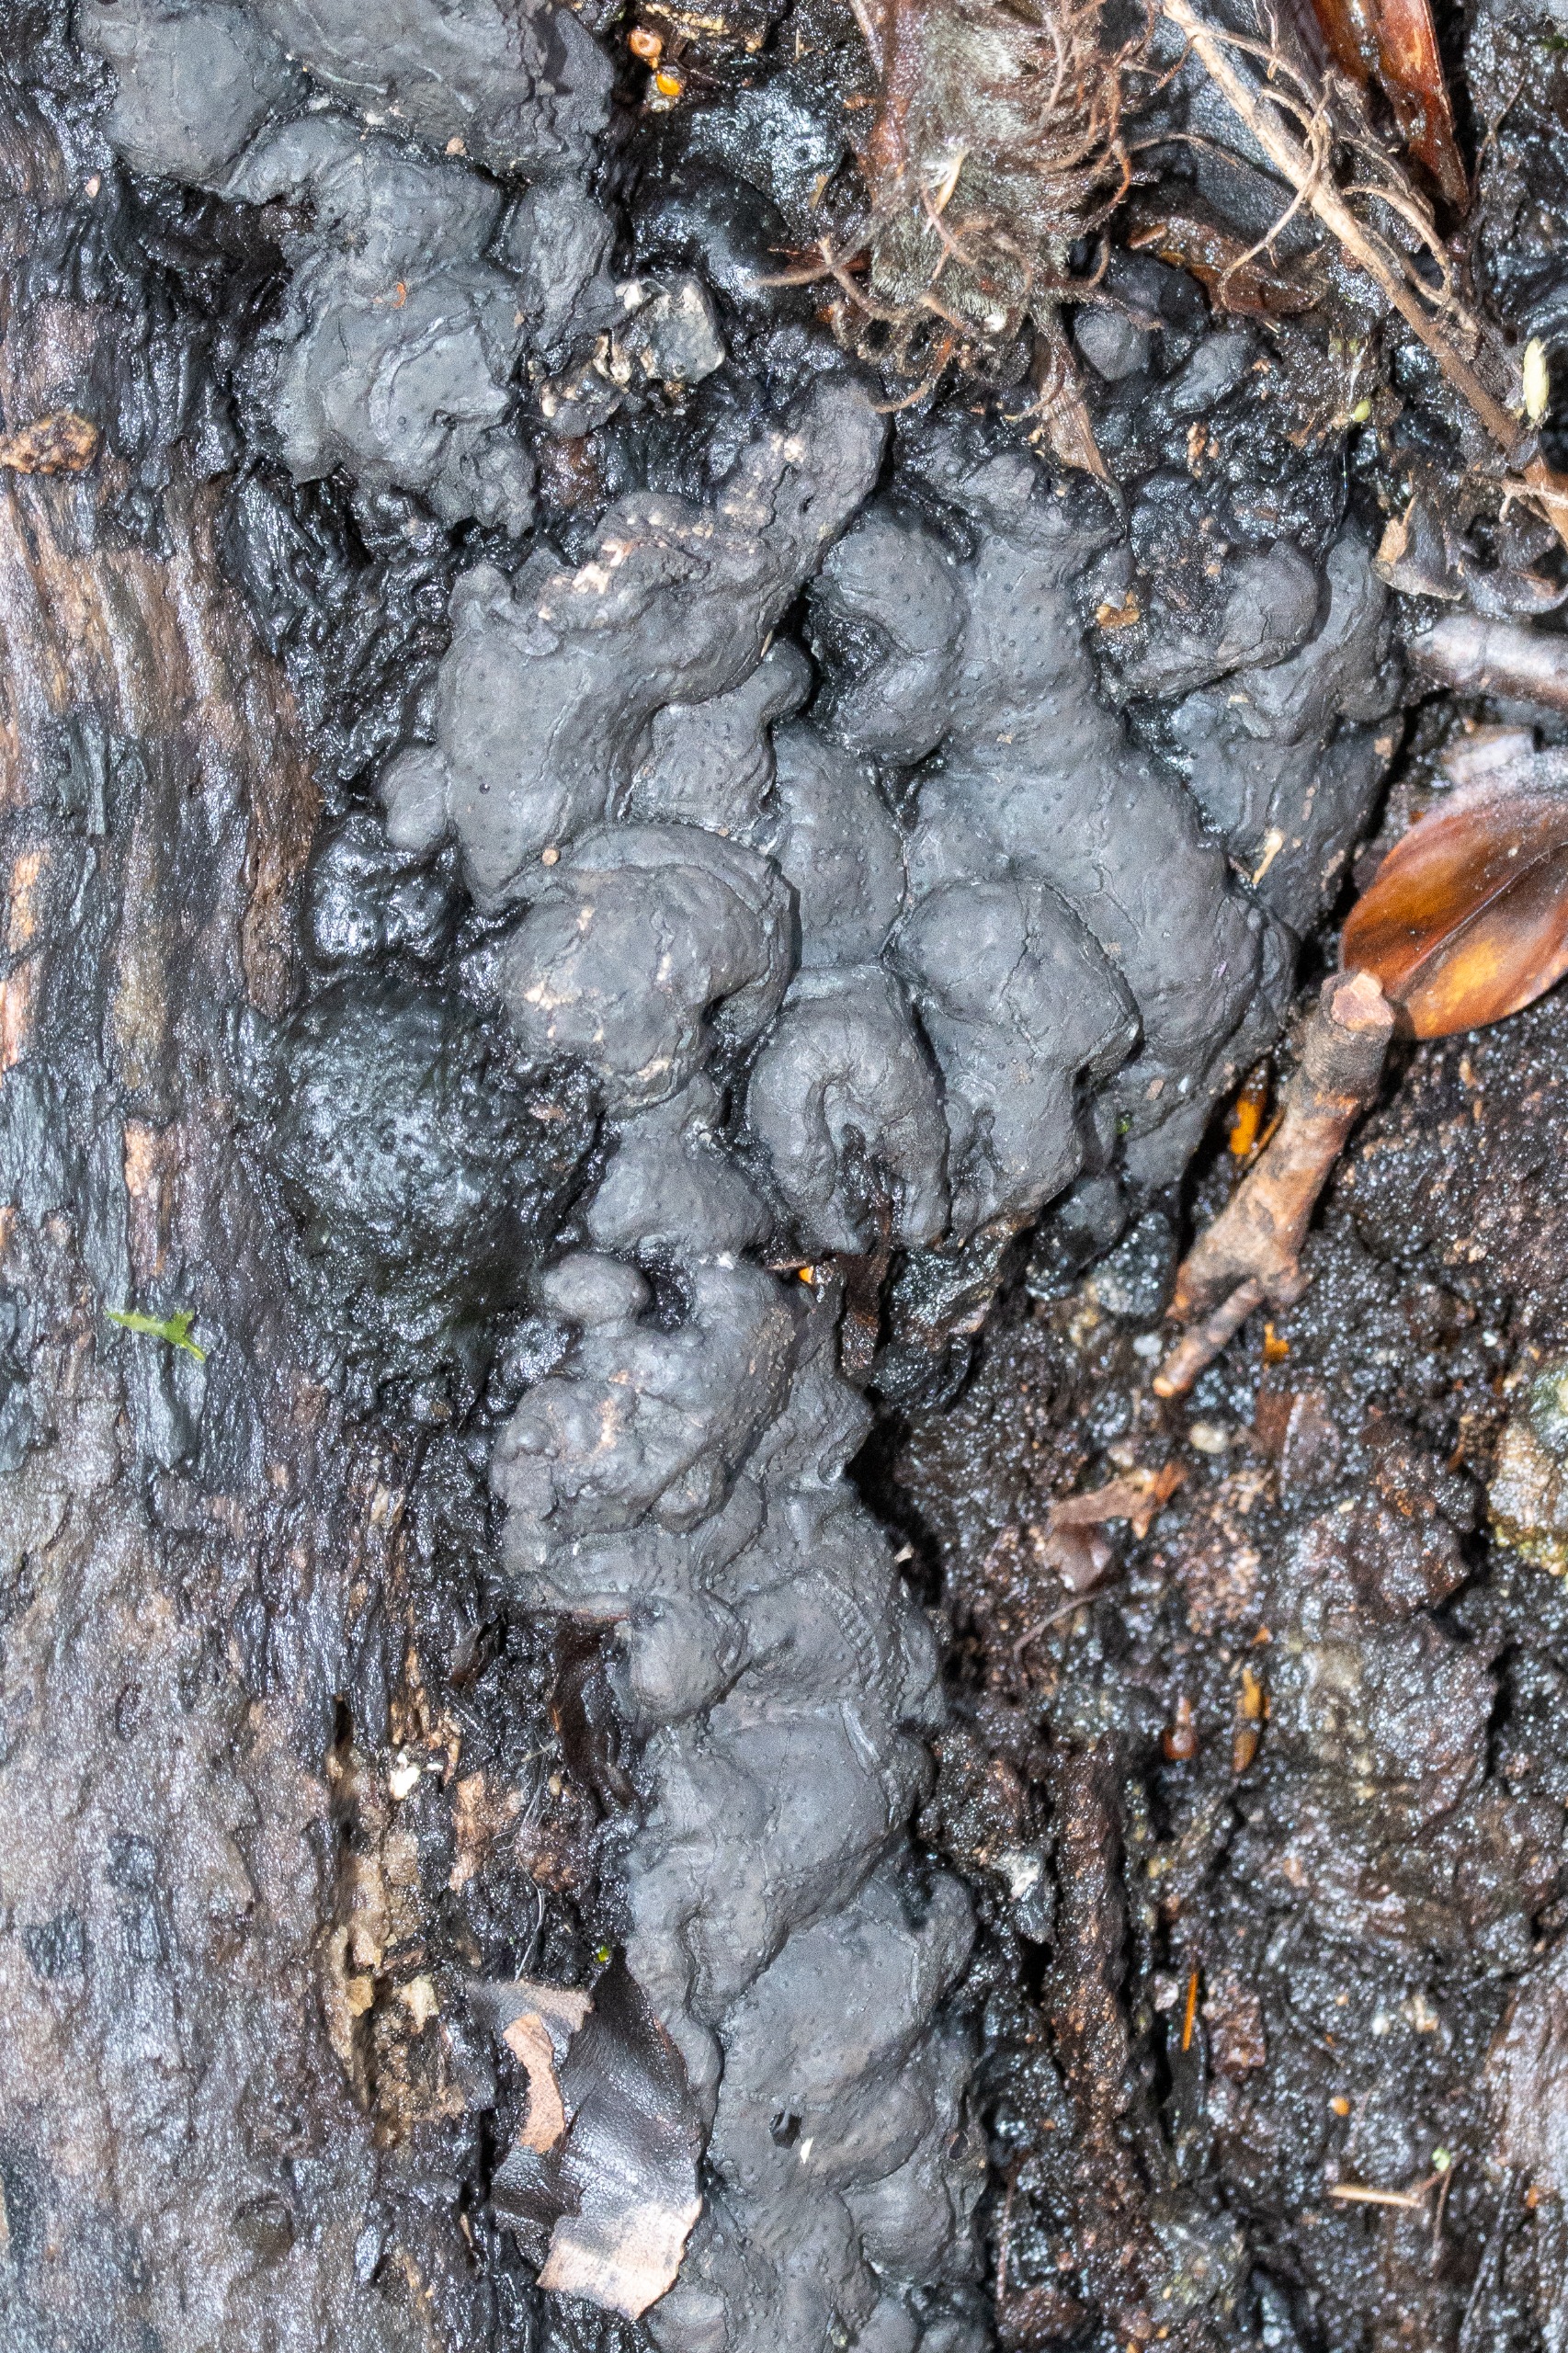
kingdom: Fungi
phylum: Ascomycota
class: Sordariomycetes
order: Xylariales
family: Xylariaceae
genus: Kretzschmaria
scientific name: Kretzschmaria deusta
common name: Stor kulsvamp
